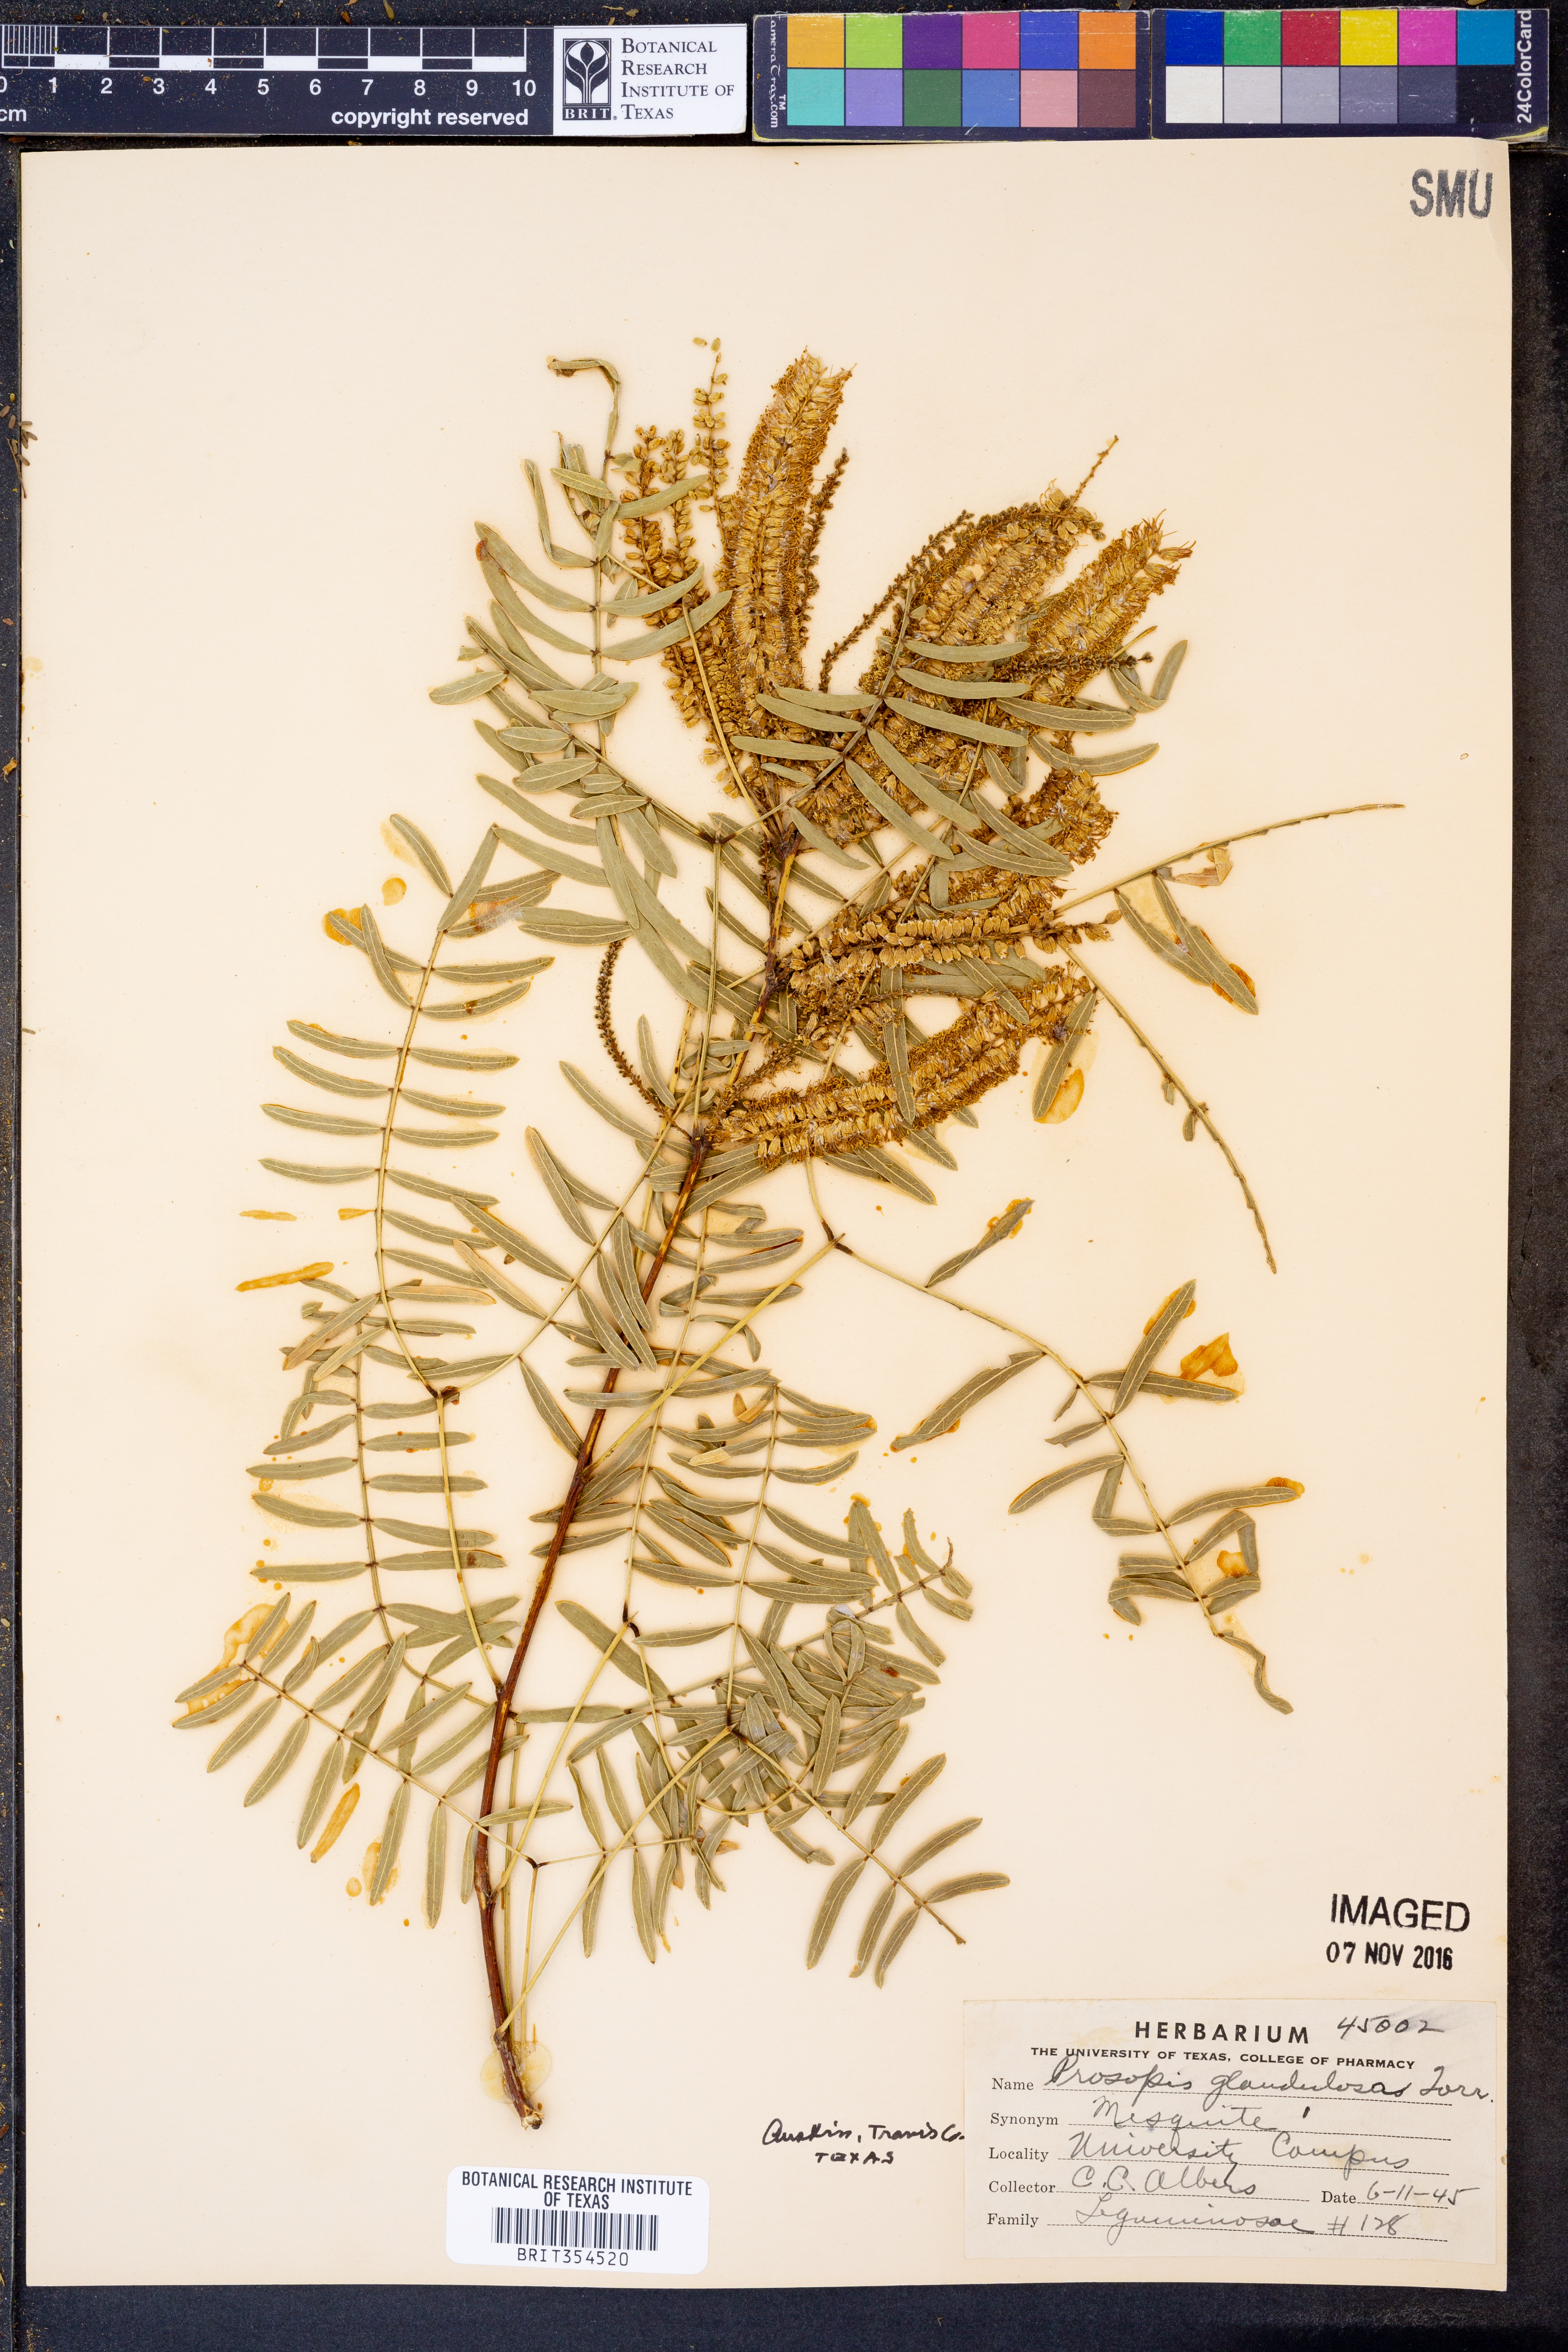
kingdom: Plantae
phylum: Tracheophyta
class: Magnoliopsida
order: Fabales
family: Fabaceae
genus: Prosopis
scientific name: Prosopis glandulosa
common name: Honey mesquite
